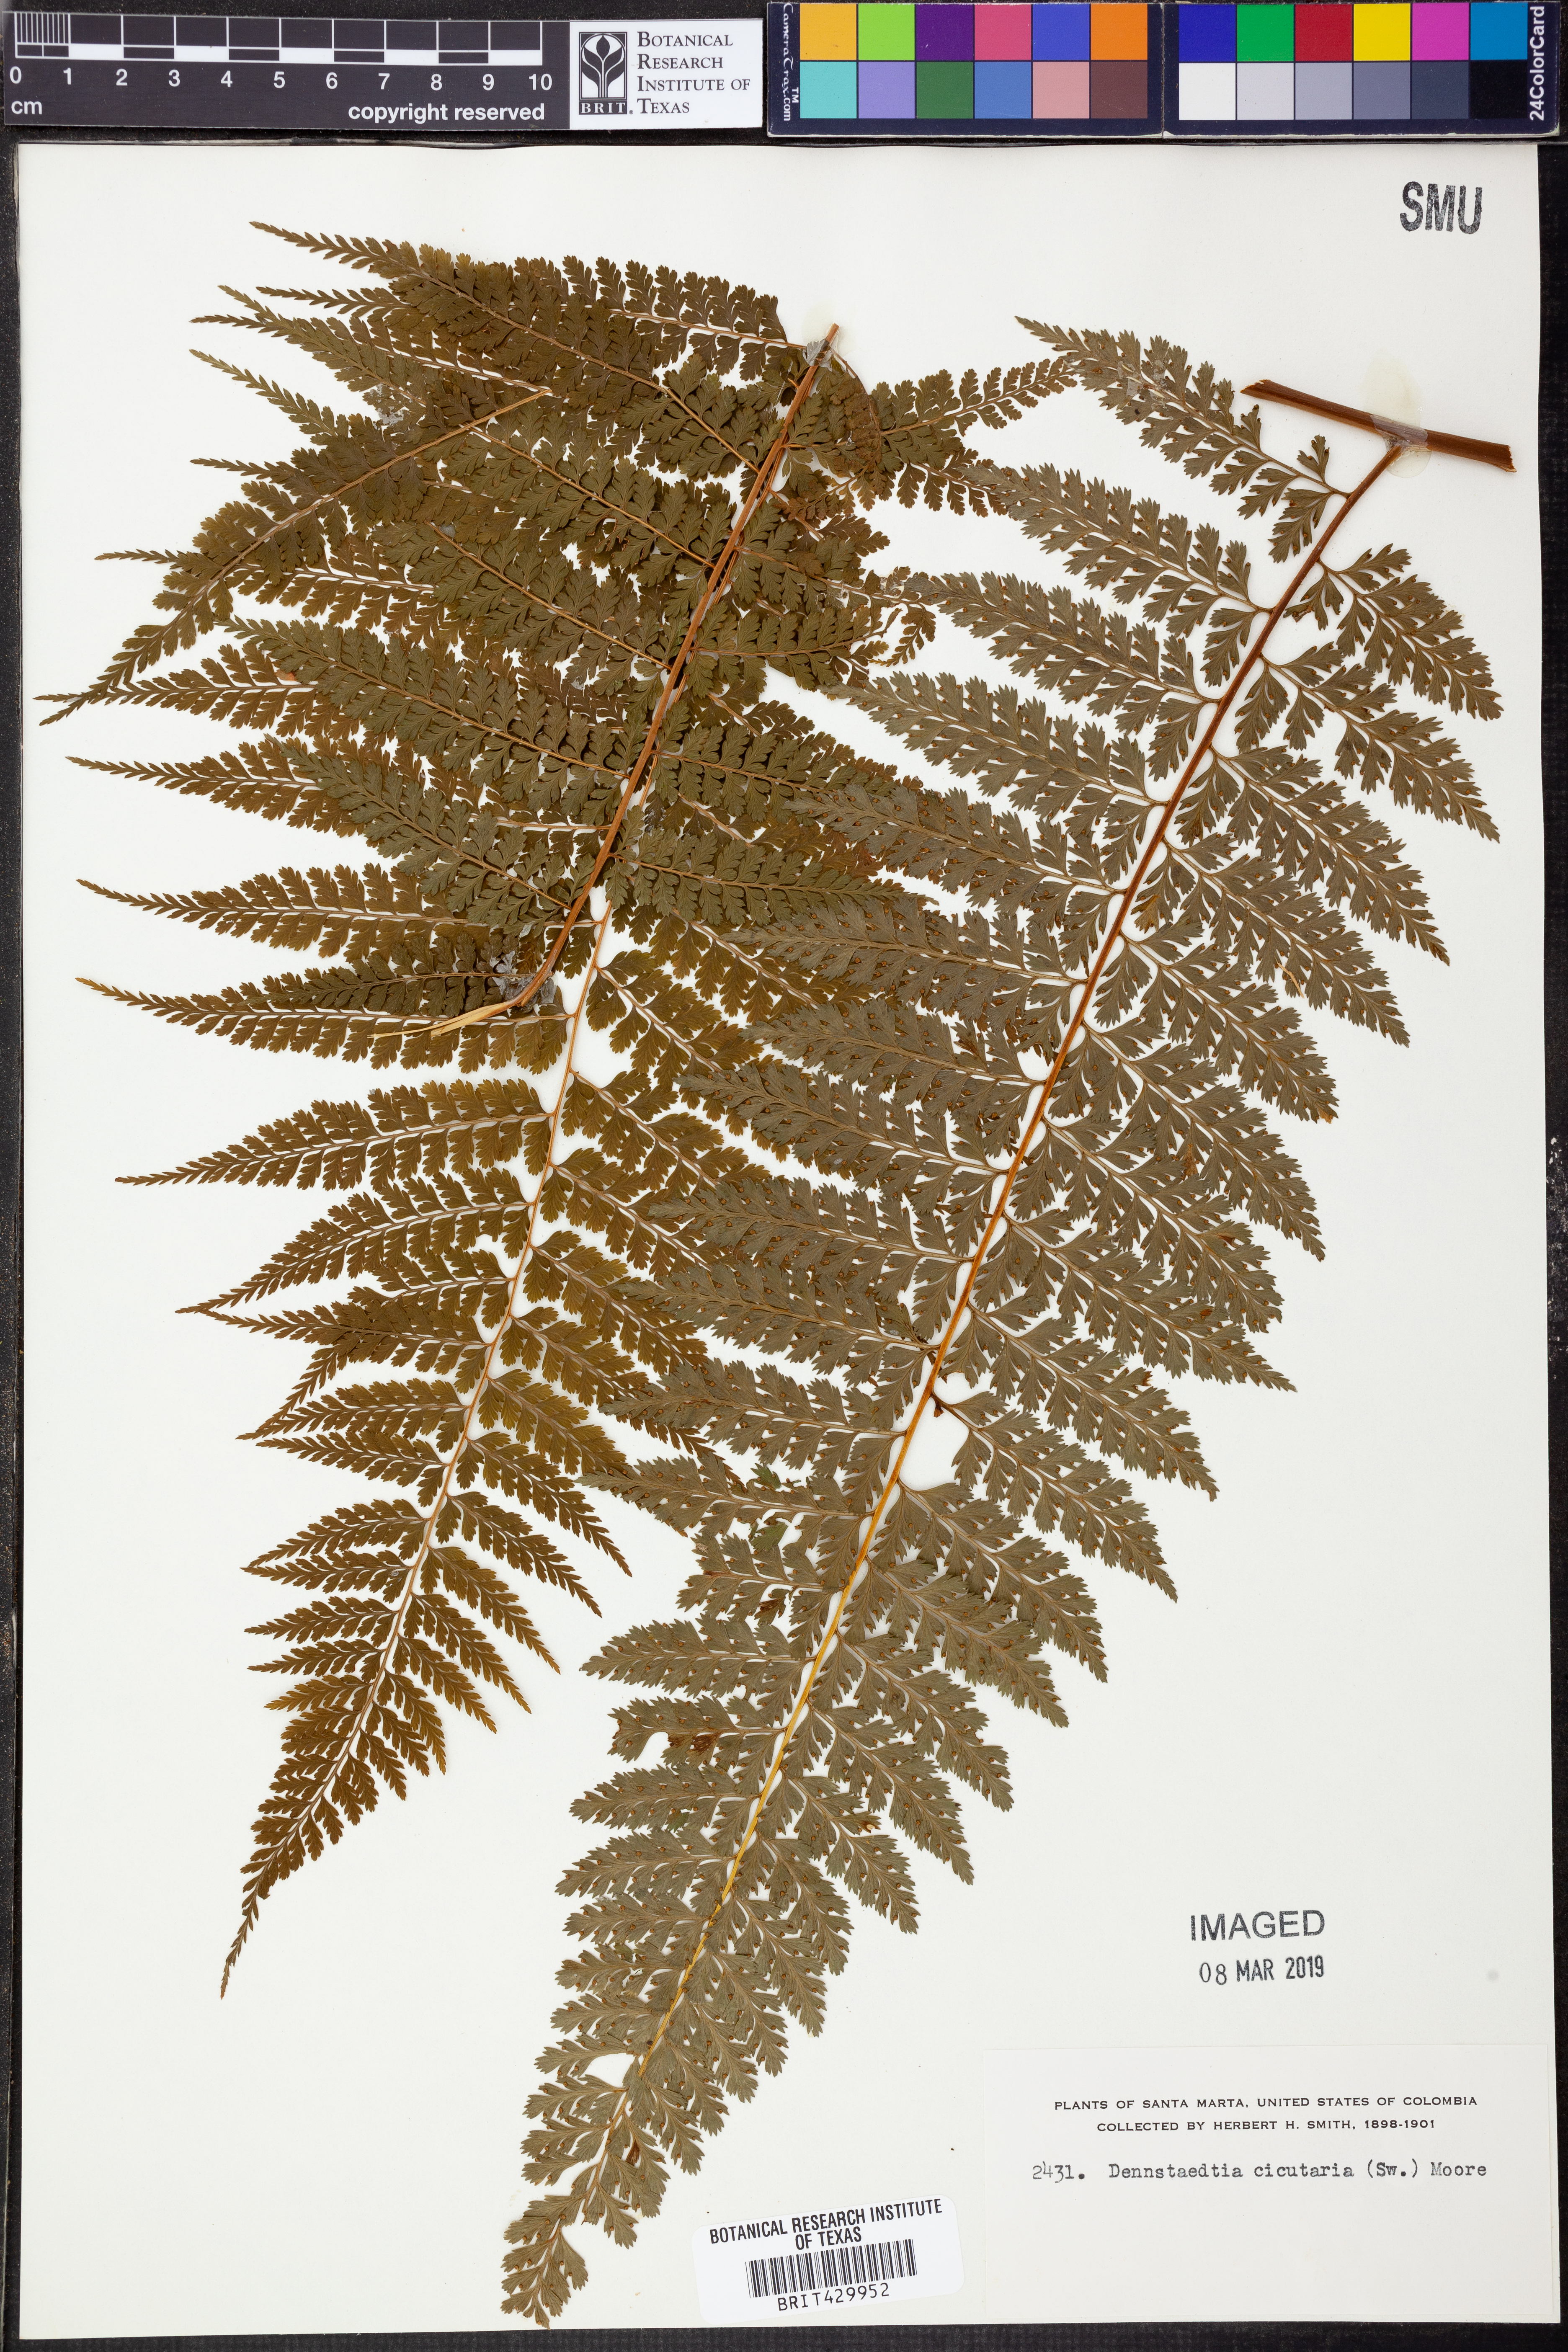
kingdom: Plantae
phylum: Tracheophyta
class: Polypodiopsida
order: Polypodiales
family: Dennstaedtiaceae
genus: Dennstaedtia
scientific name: Dennstaedtia cicutaria
